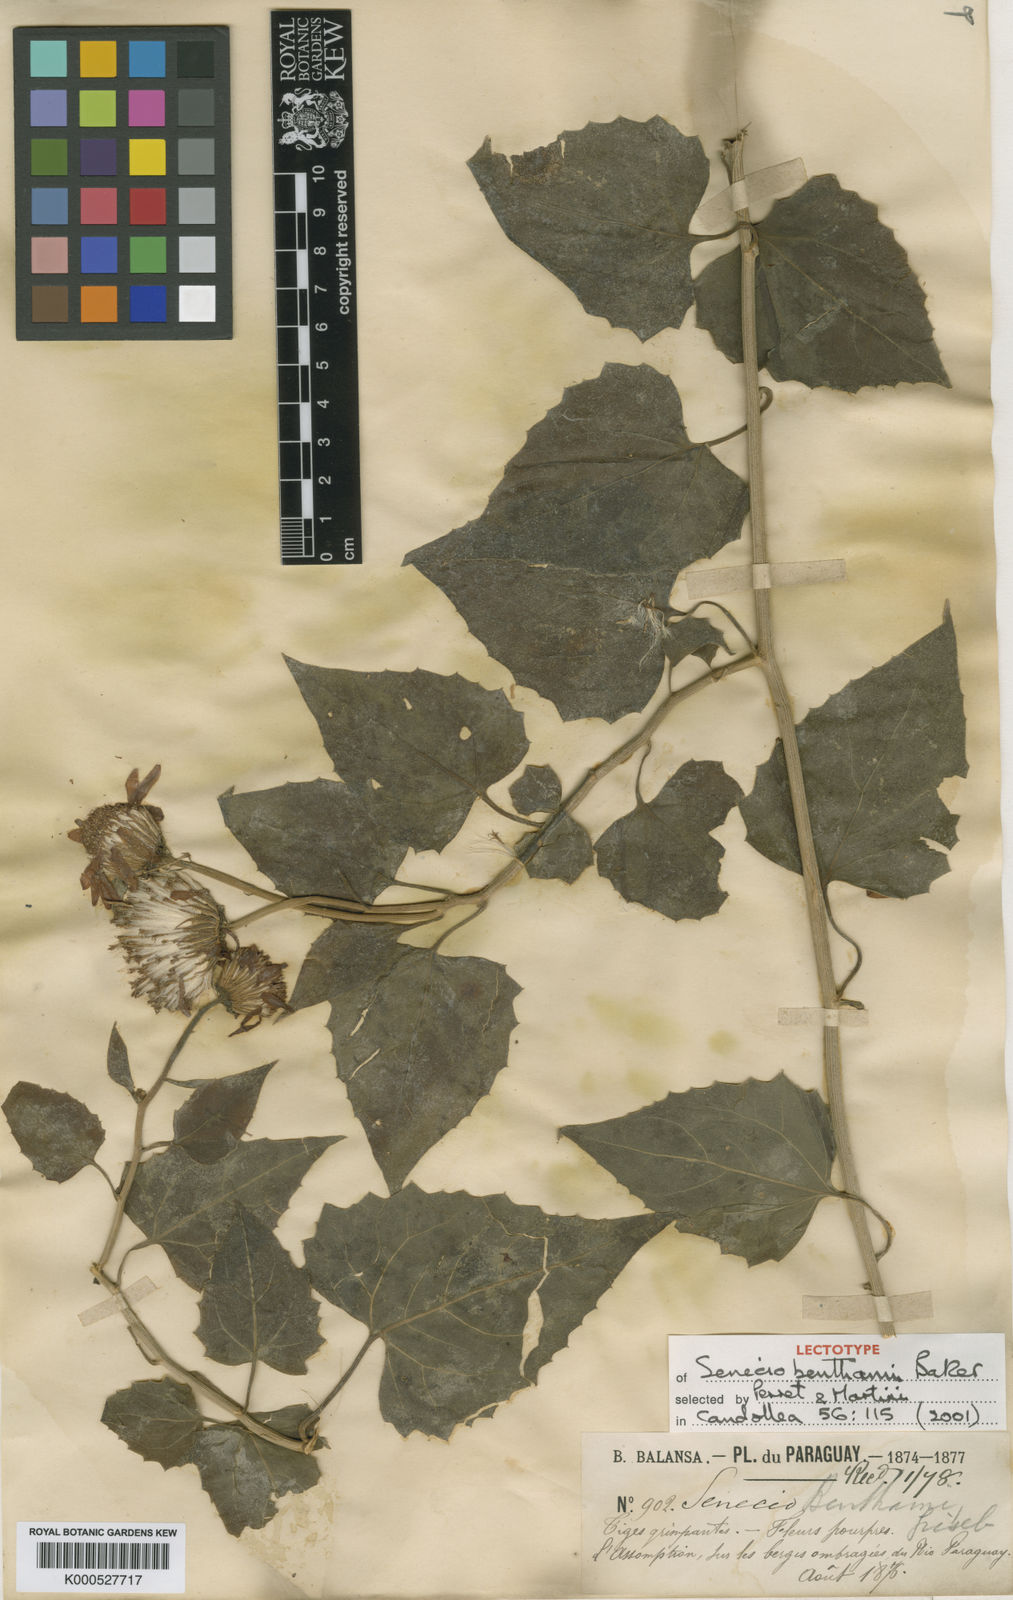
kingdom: Plantae
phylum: Tracheophyta
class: Magnoliopsida
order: Asterales
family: Asteraceae
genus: Pseudogynoxys
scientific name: Pseudogynoxys cabrerae
